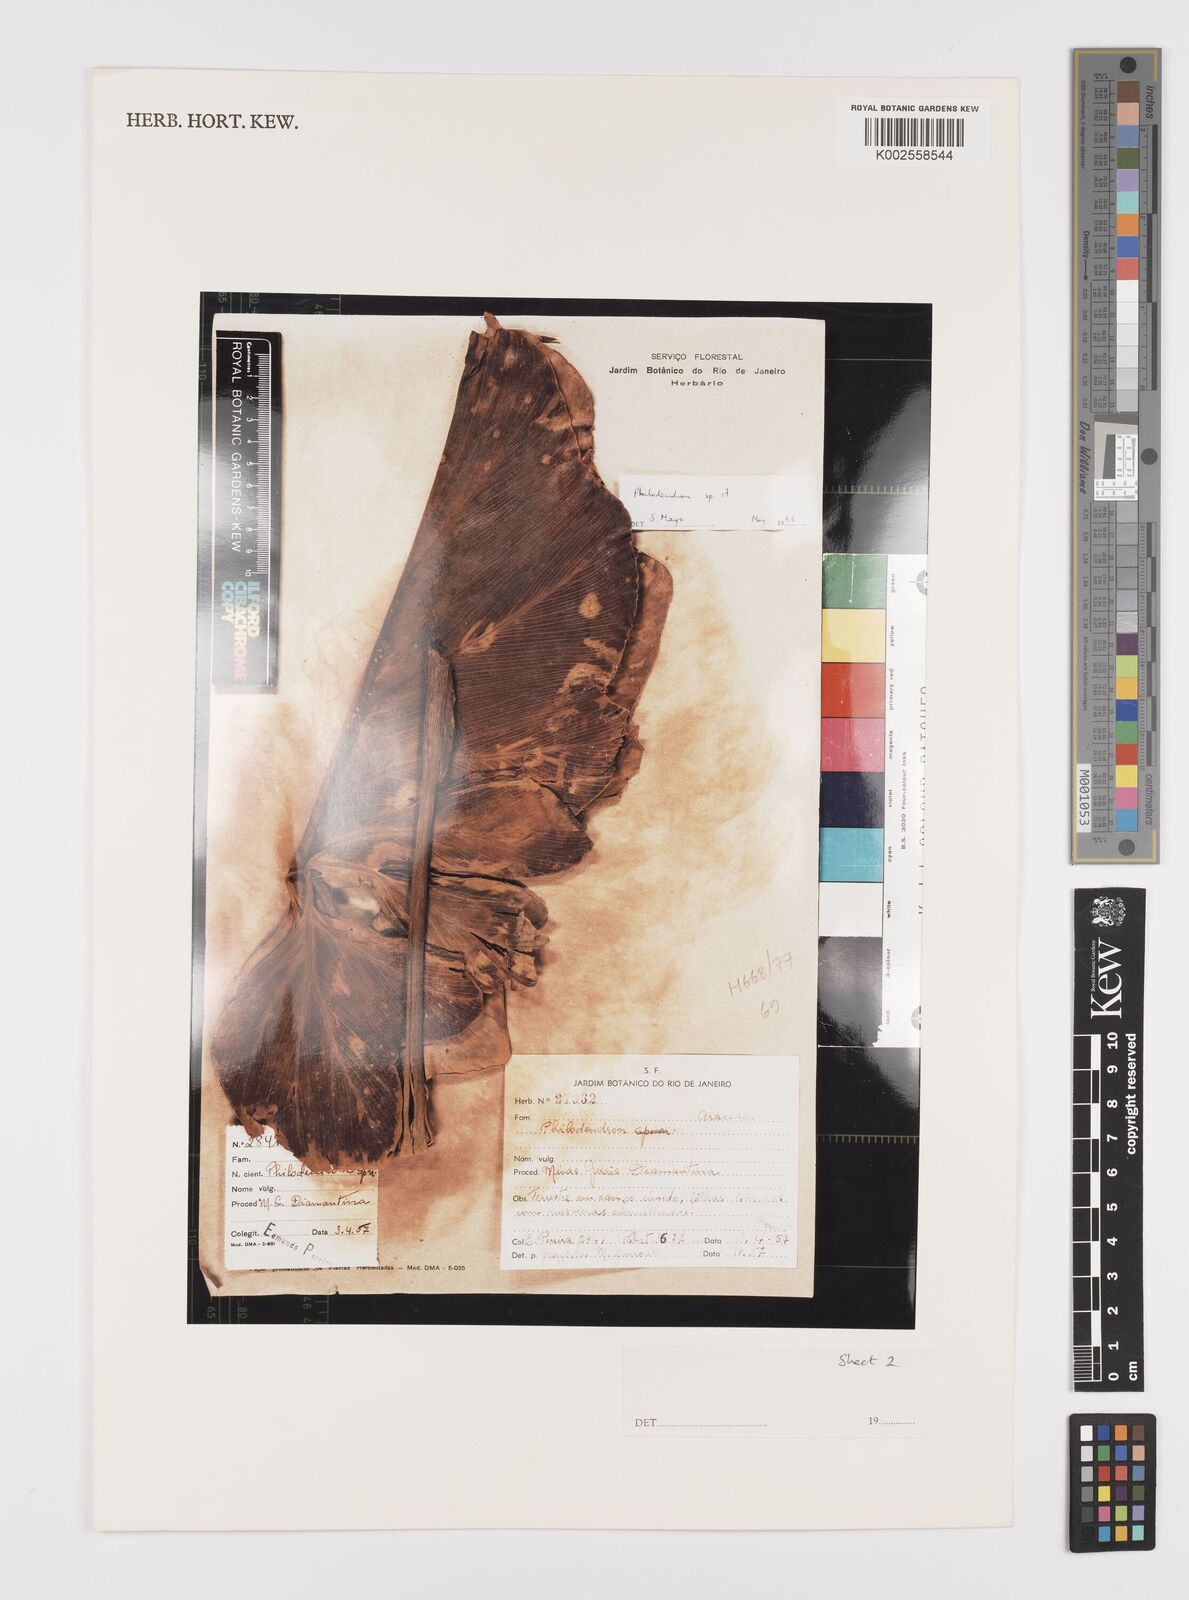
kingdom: Plantae
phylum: Tracheophyta
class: Liliopsida
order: Alismatales
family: Araceae
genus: Philodendron
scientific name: Philodendron
